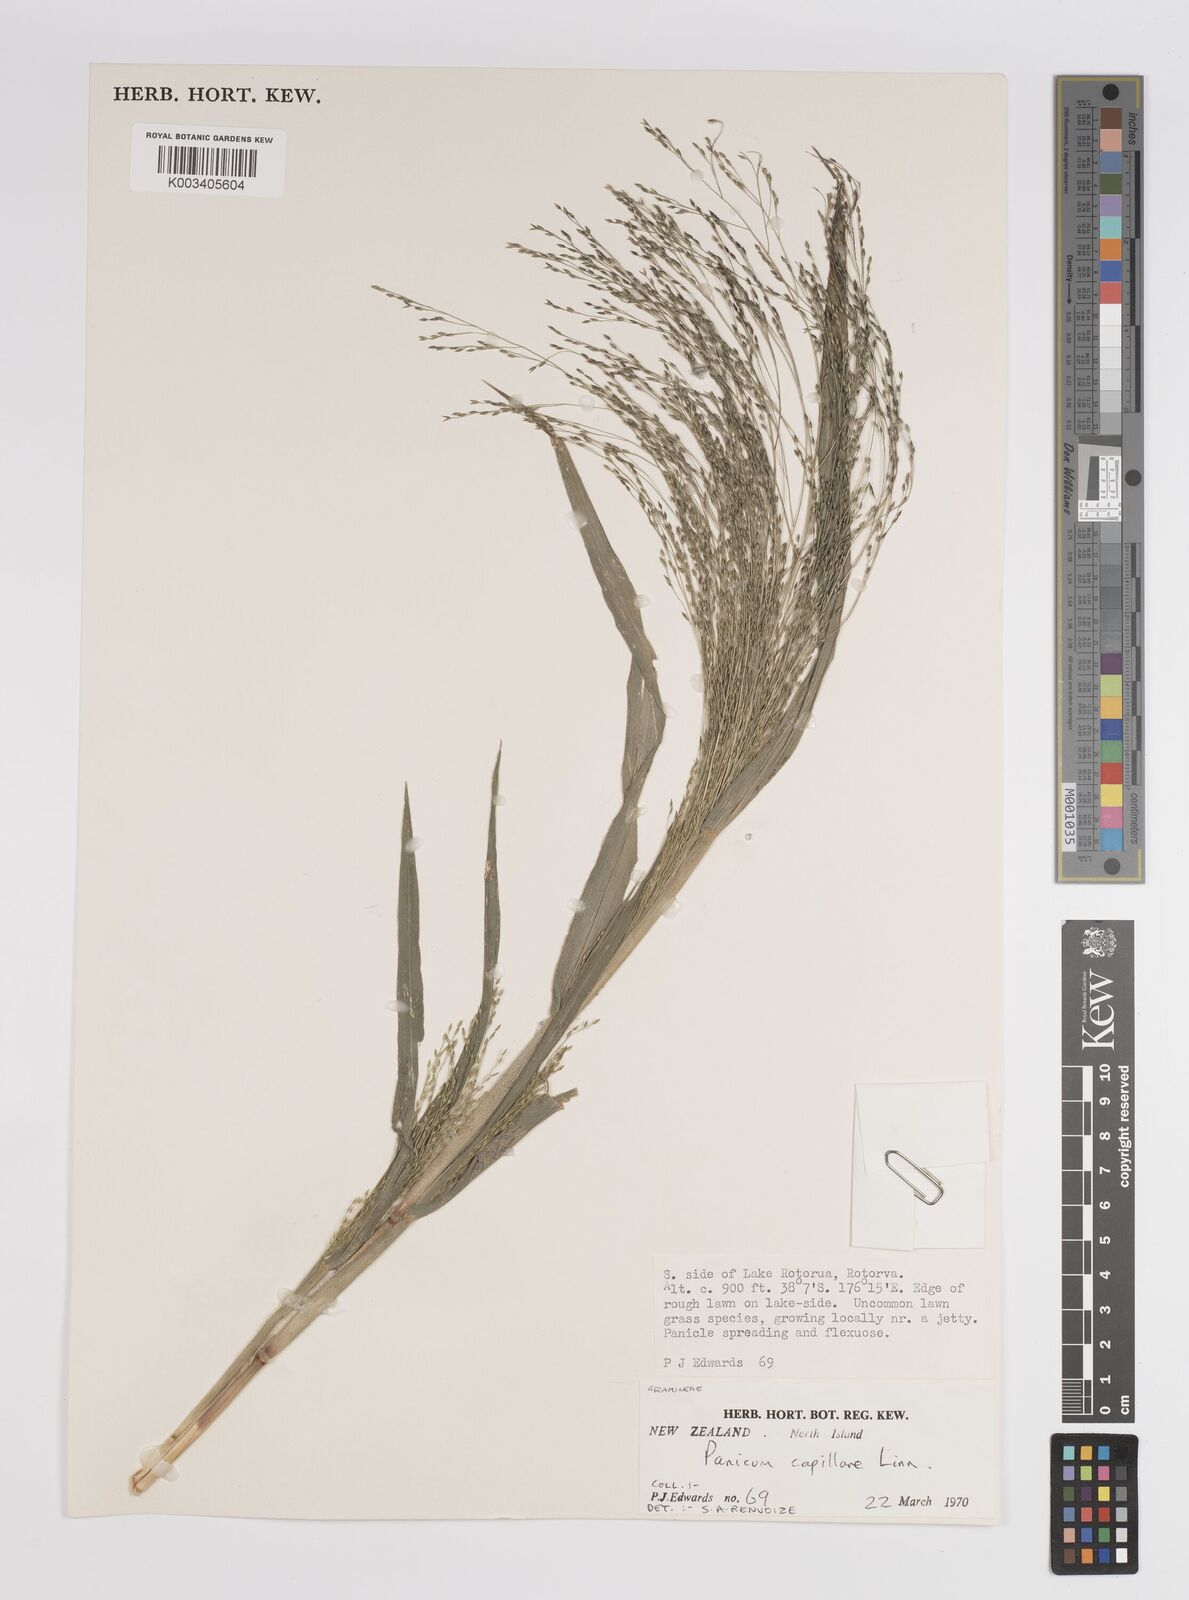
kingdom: Plantae
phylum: Tracheophyta
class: Liliopsida
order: Poales
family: Poaceae
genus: Panicum
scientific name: Panicum capillare
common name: Witch-grass
